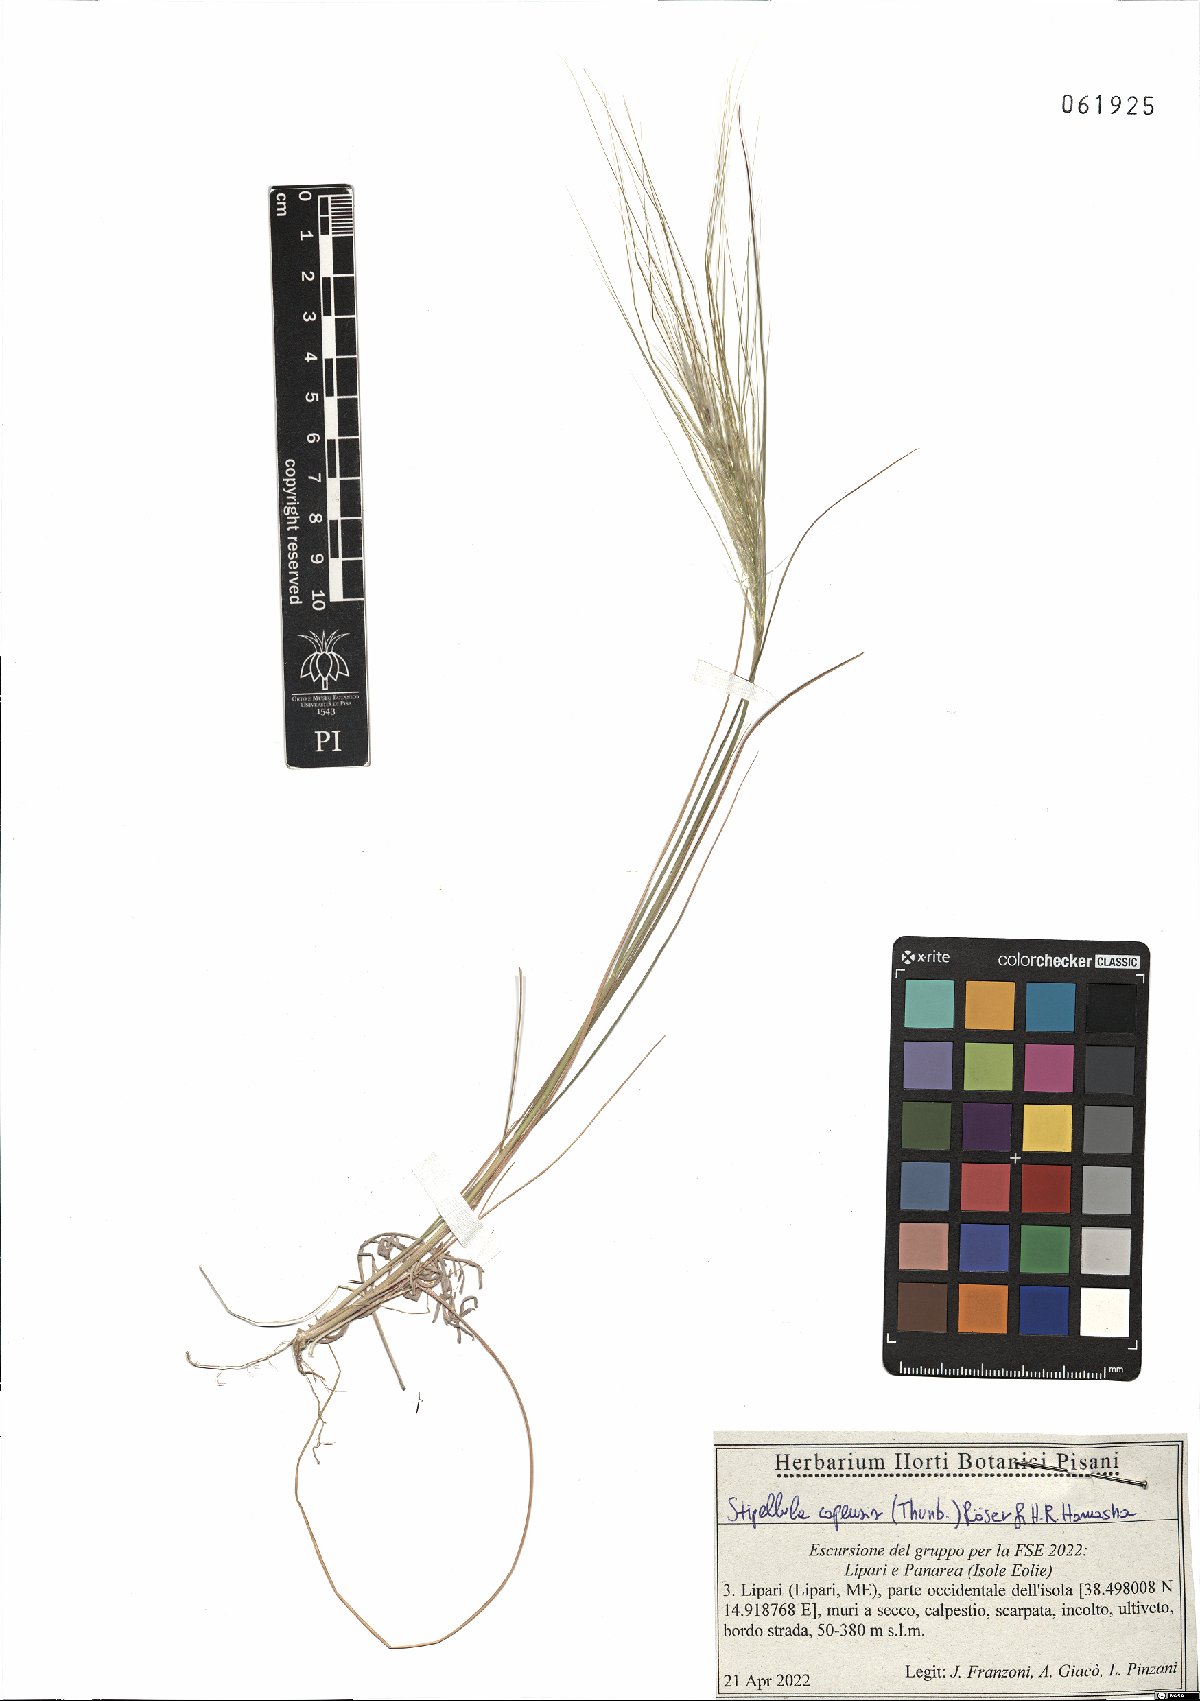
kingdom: Plantae
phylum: Tracheophyta
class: Liliopsida
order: Poales
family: Poaceae
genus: Stipellula
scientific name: Stipellula capensis
